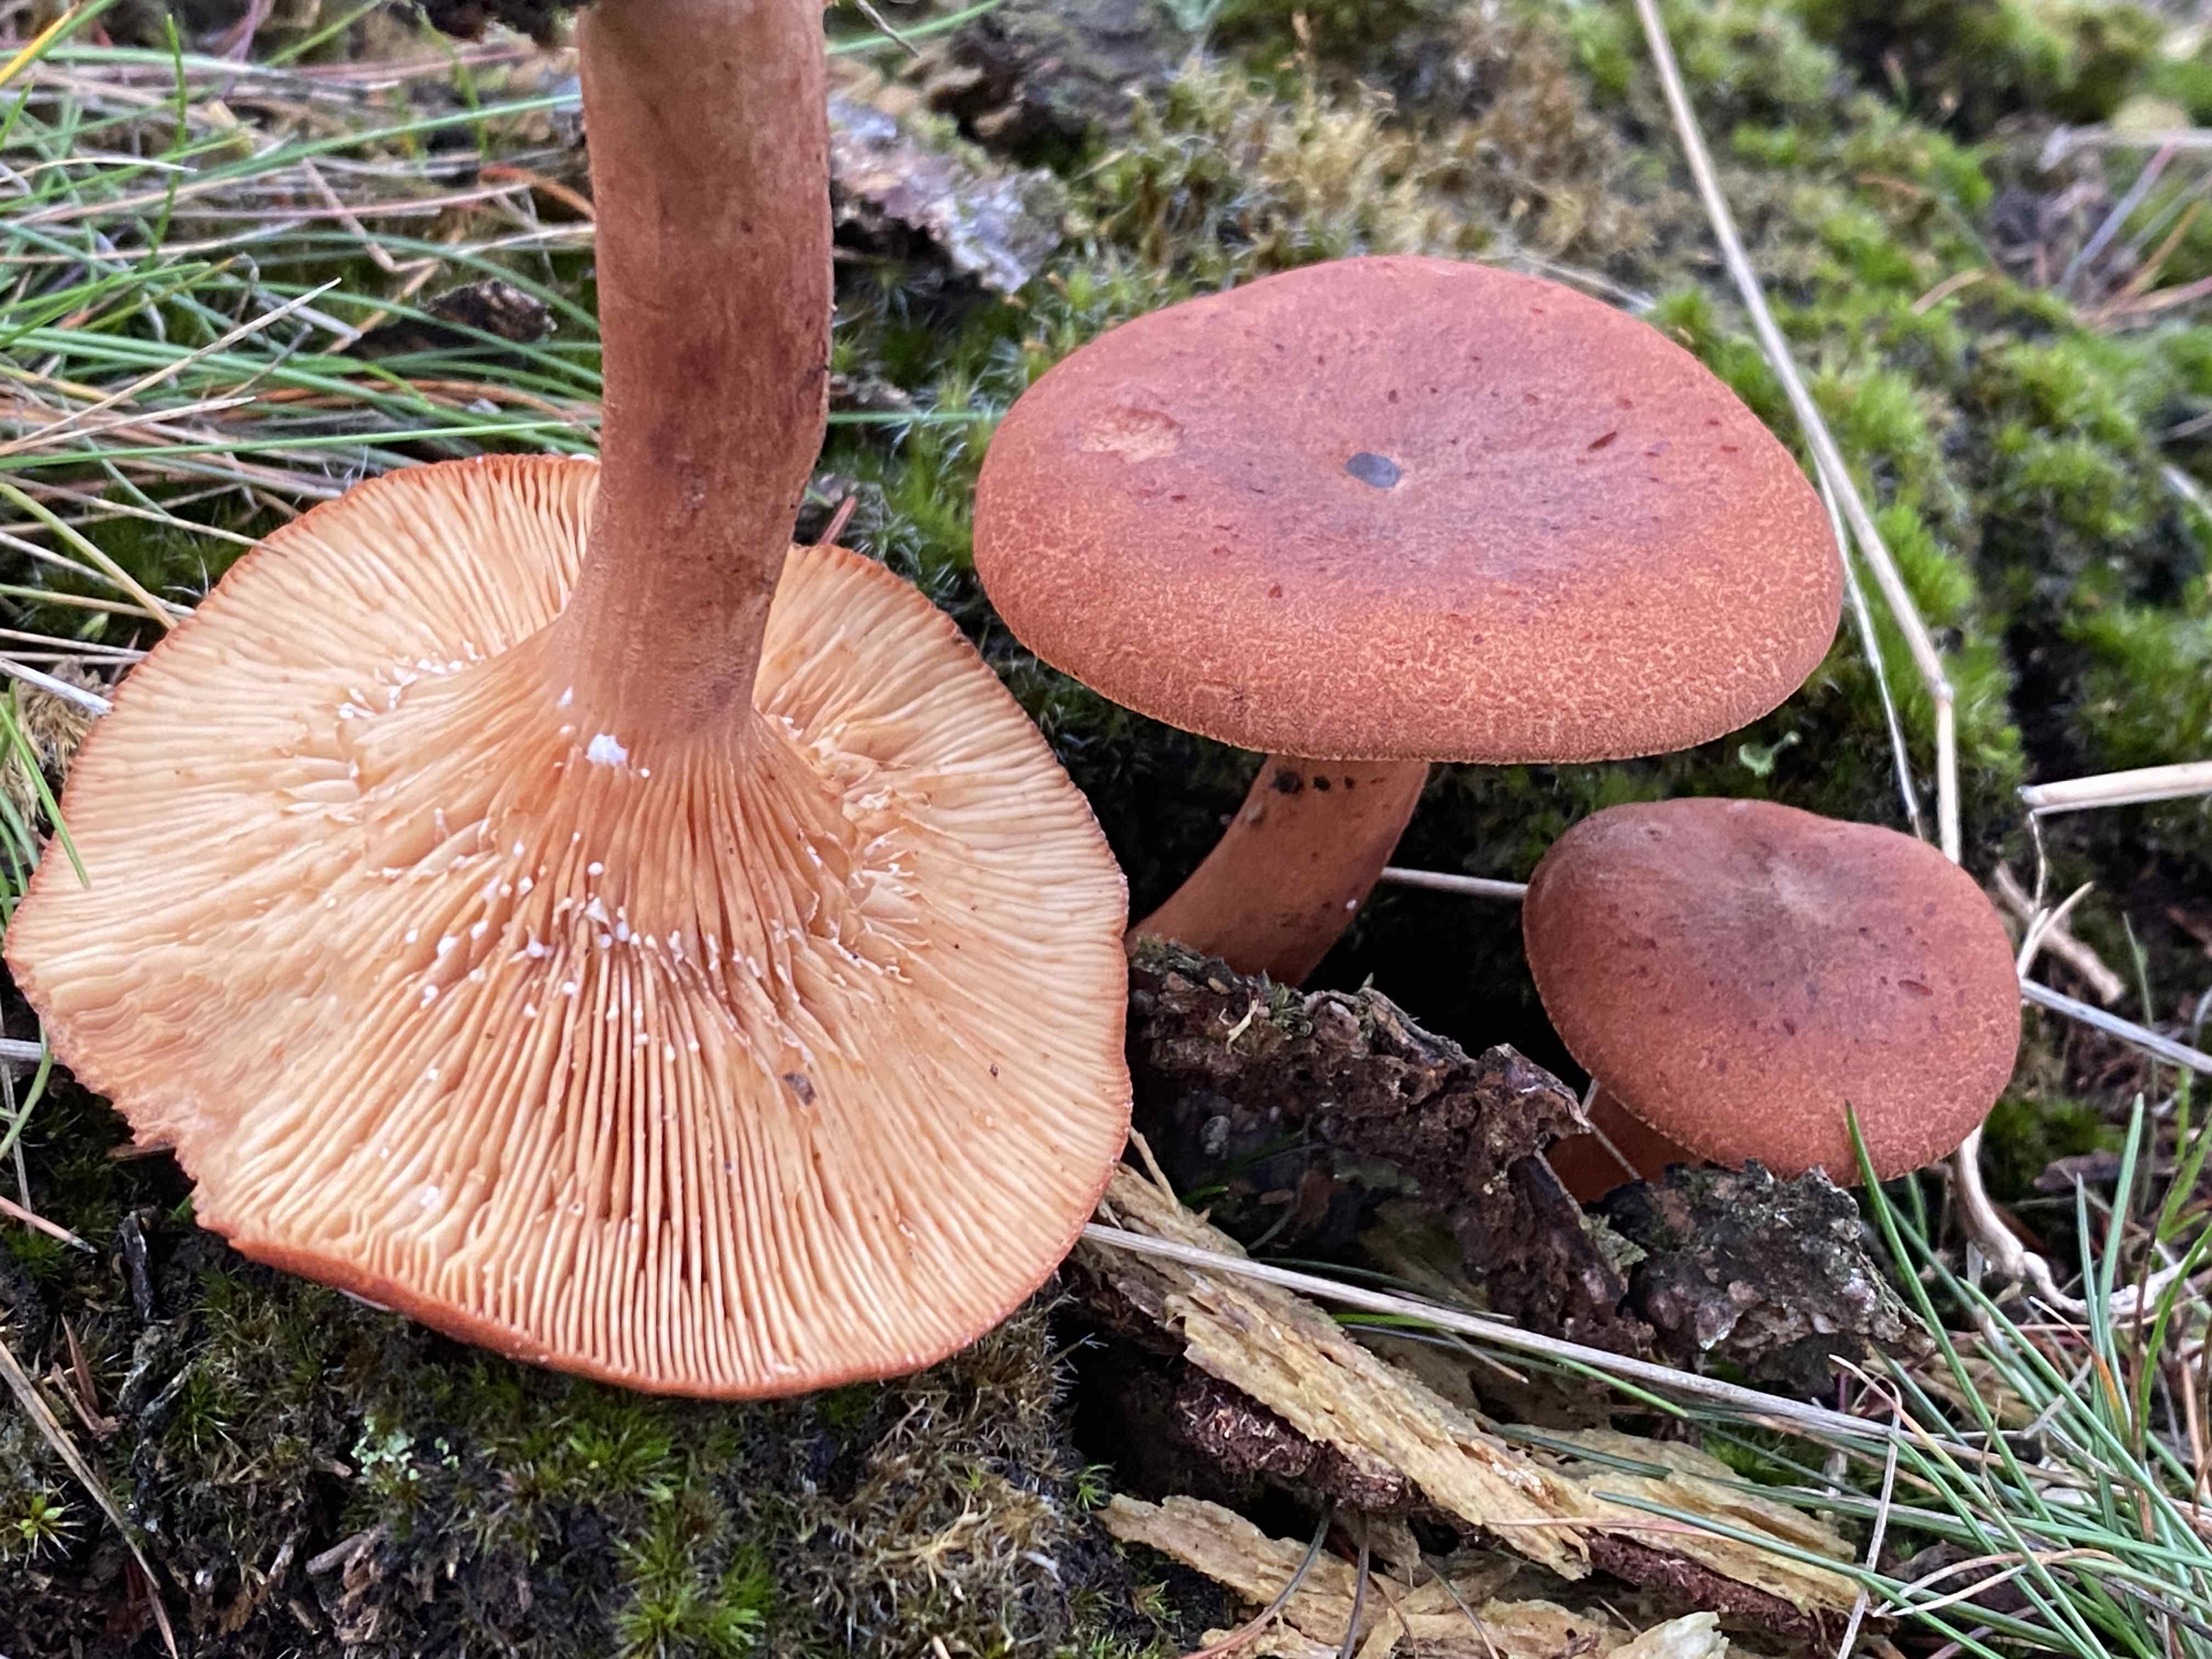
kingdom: Fungi
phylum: Basidiomycota
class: Agaricomycetes
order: Russulales
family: Russulaceae
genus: Lactarius
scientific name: Lactarius rufus
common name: rødbrun mælkehat
